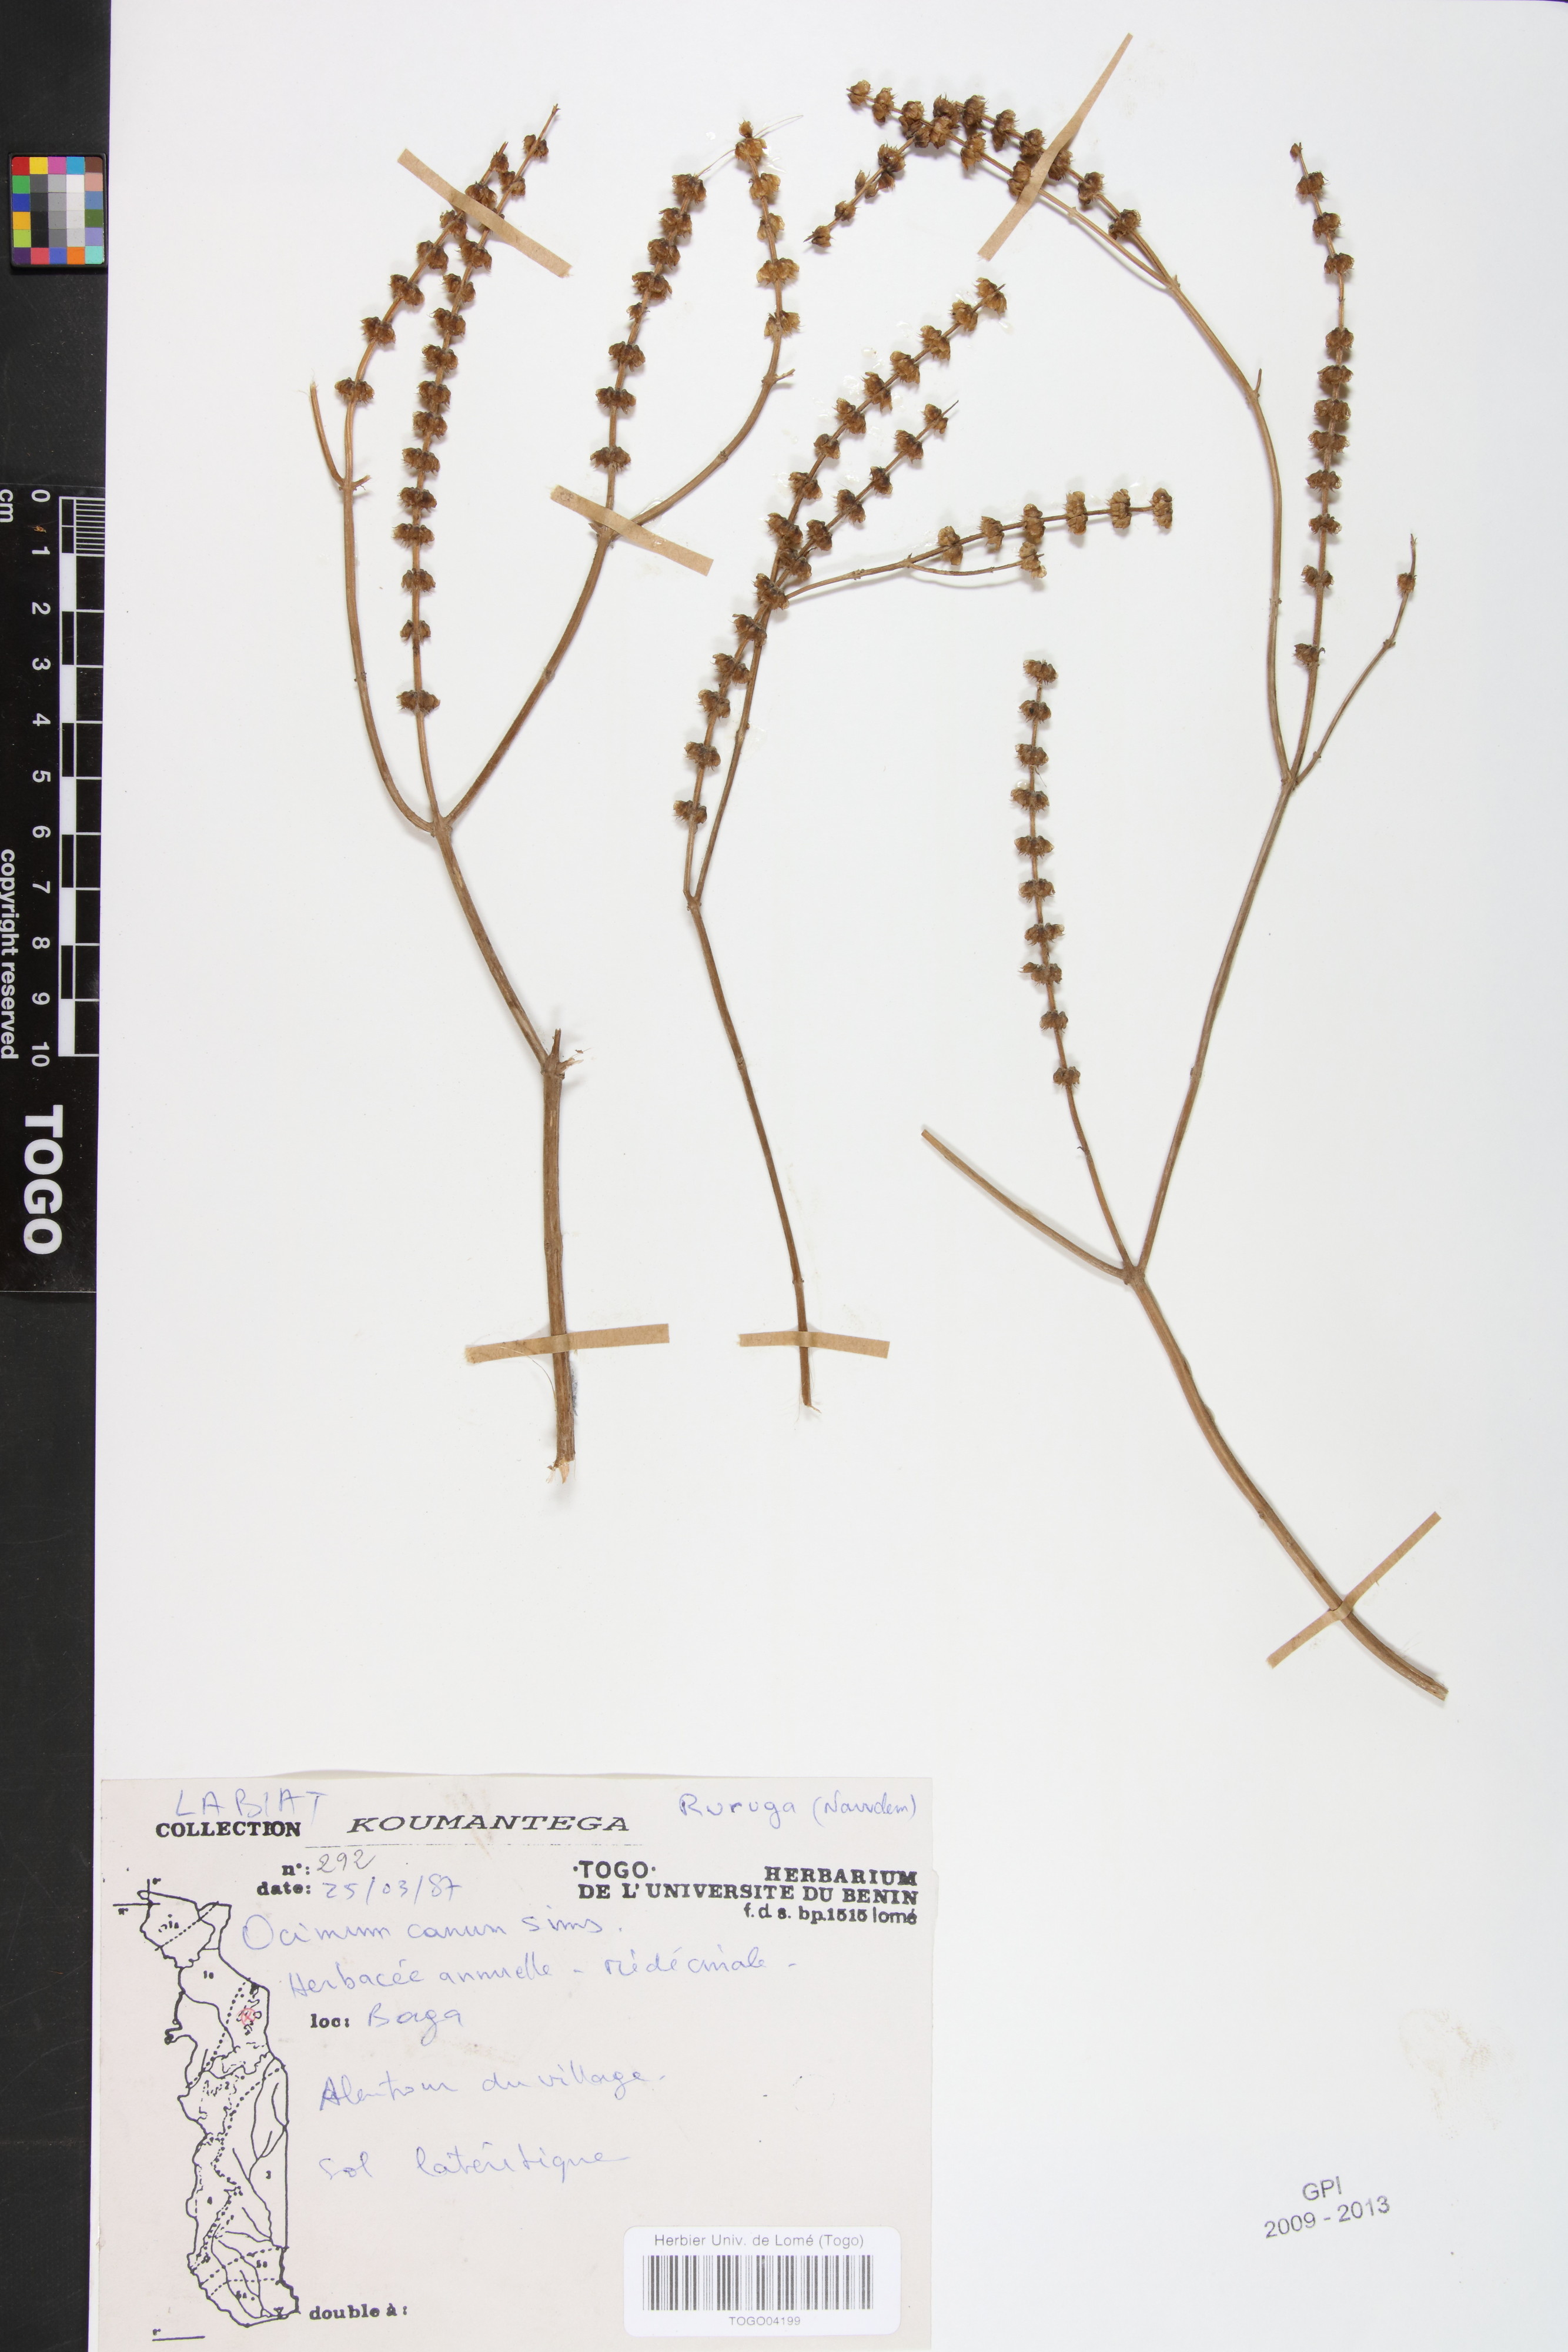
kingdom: Plantae
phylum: Tracheophyta
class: Magnoliopsida
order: Lamiales
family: Lamiaceae
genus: Ocimum
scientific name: Ocimum americanum
